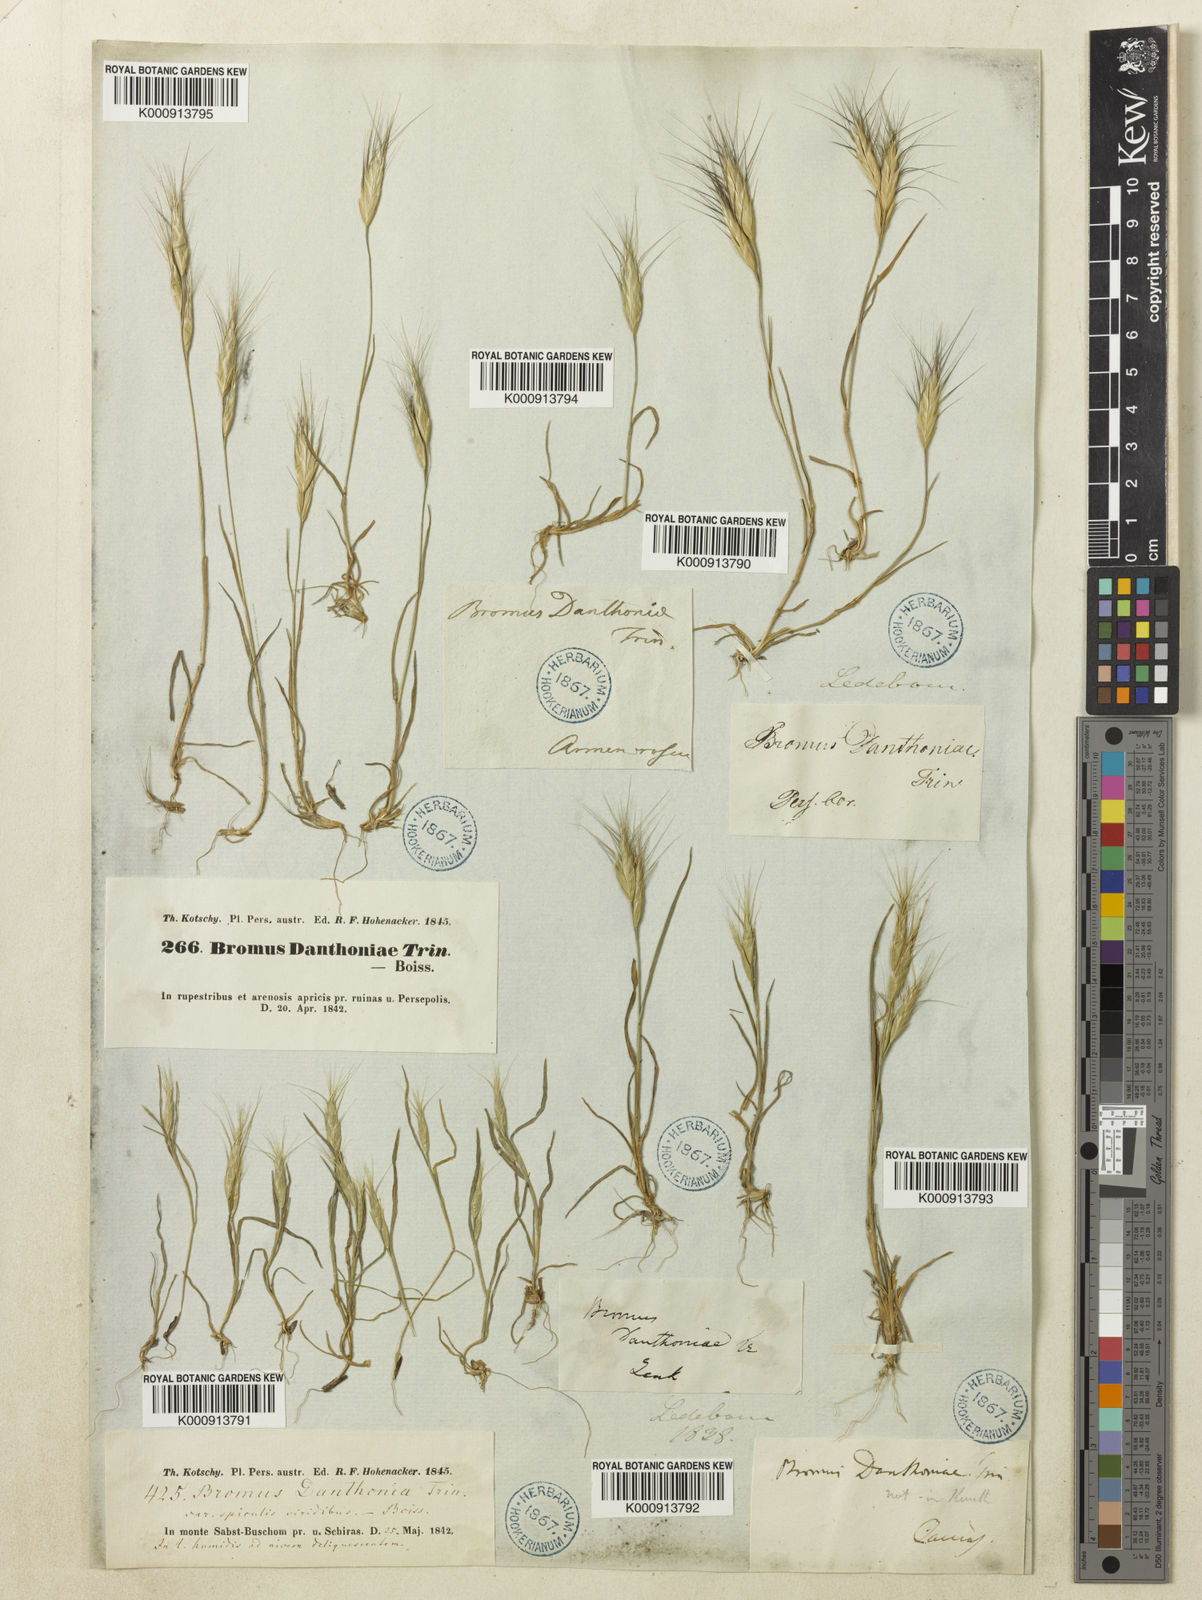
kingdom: Plantae
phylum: Tracheophyta
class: Liliopsida
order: Poales
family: Poaceae
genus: Setaria
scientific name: Setaria vulpiseta
